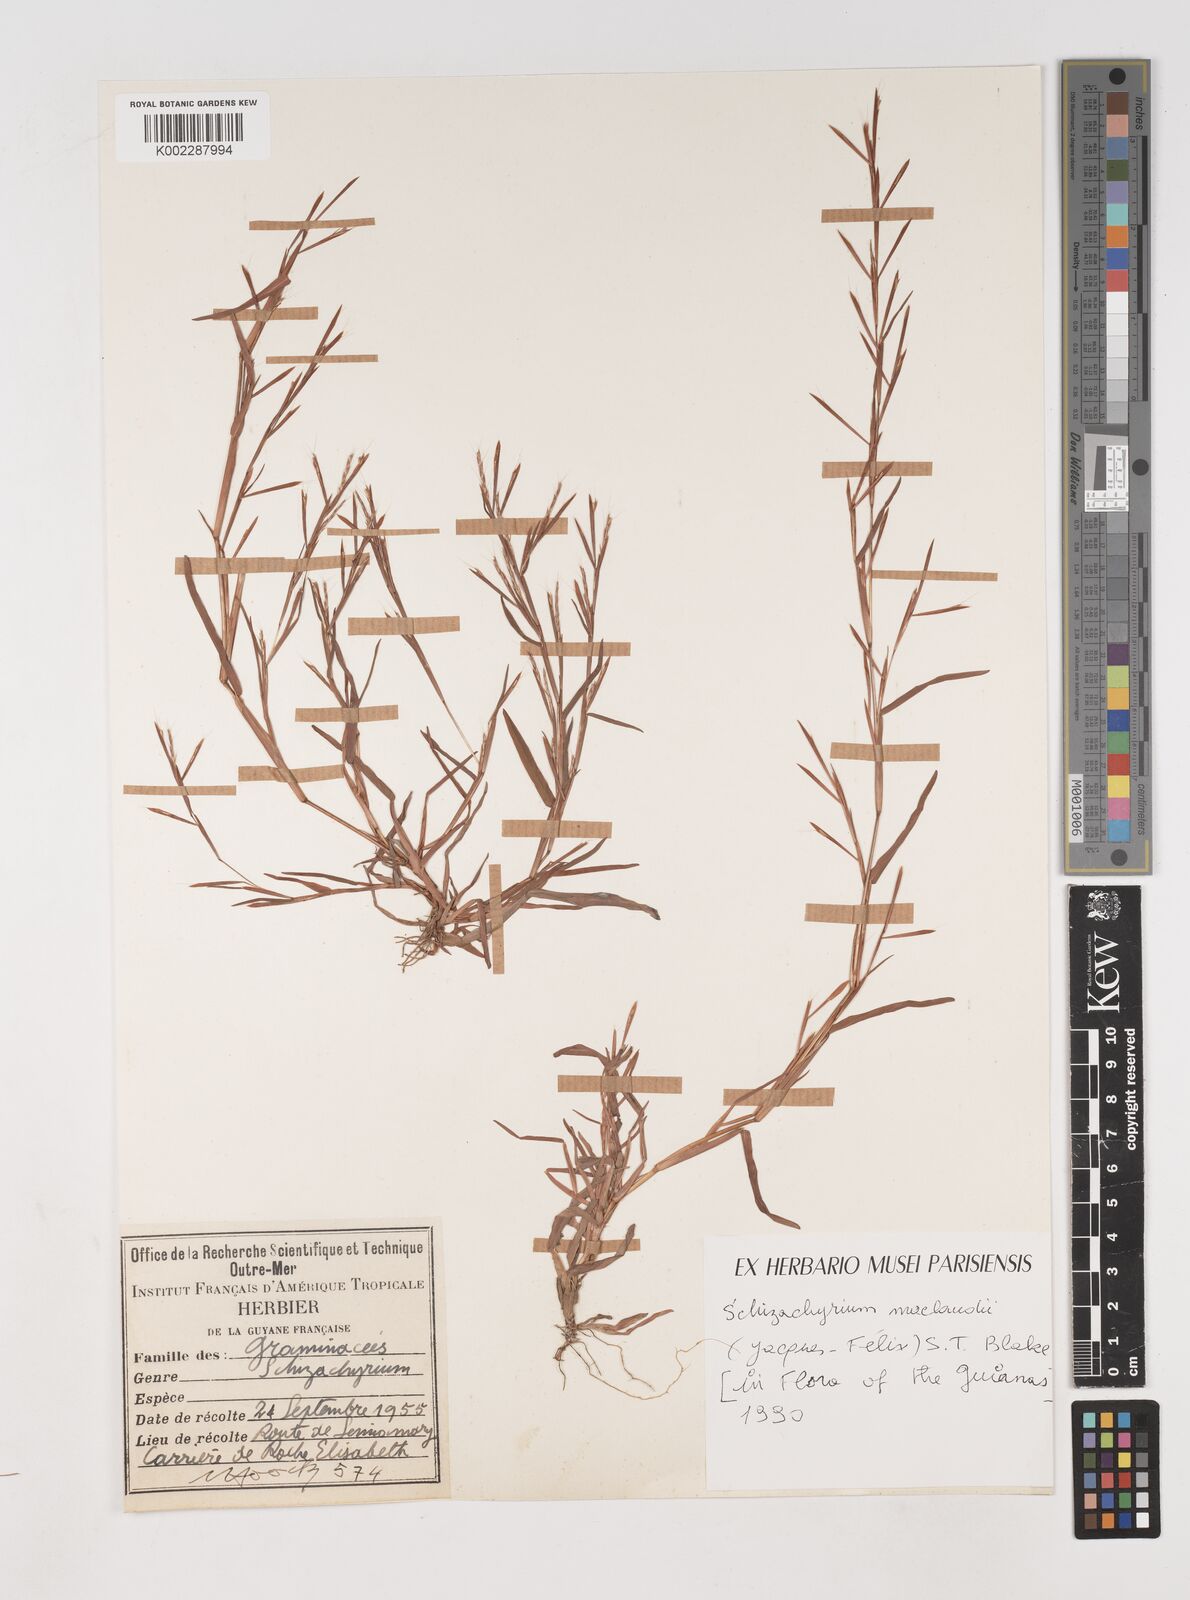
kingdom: Plantae
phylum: Tracheophyta
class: Liliopsida
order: Poales
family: Poaceae
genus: Schizachyrium
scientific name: Schizachyrium maclaudii
